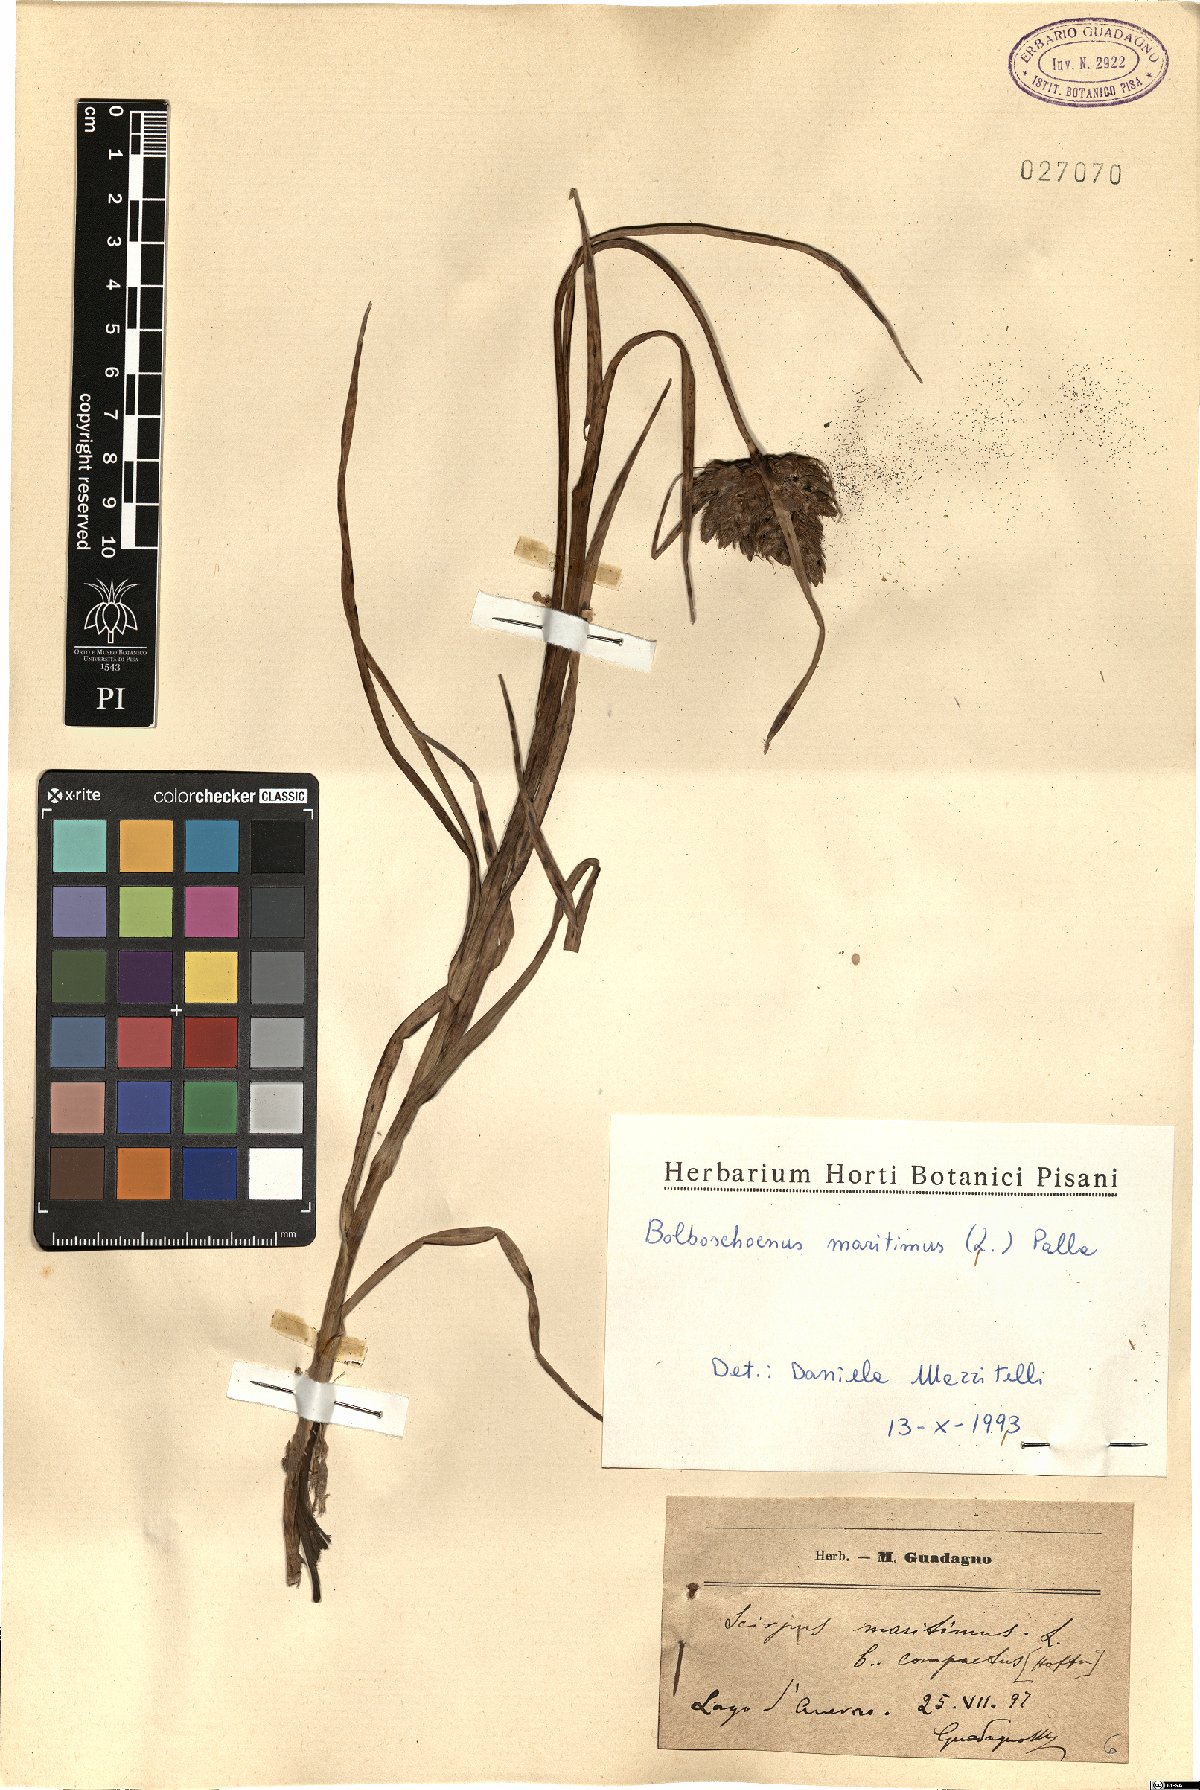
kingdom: Plantae
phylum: Tracheophyta
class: Liliopsida
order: Poales
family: Cyperaceae
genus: Bolboschoenus
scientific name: Bolboschoenus maritimus
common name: Sea club-rush
